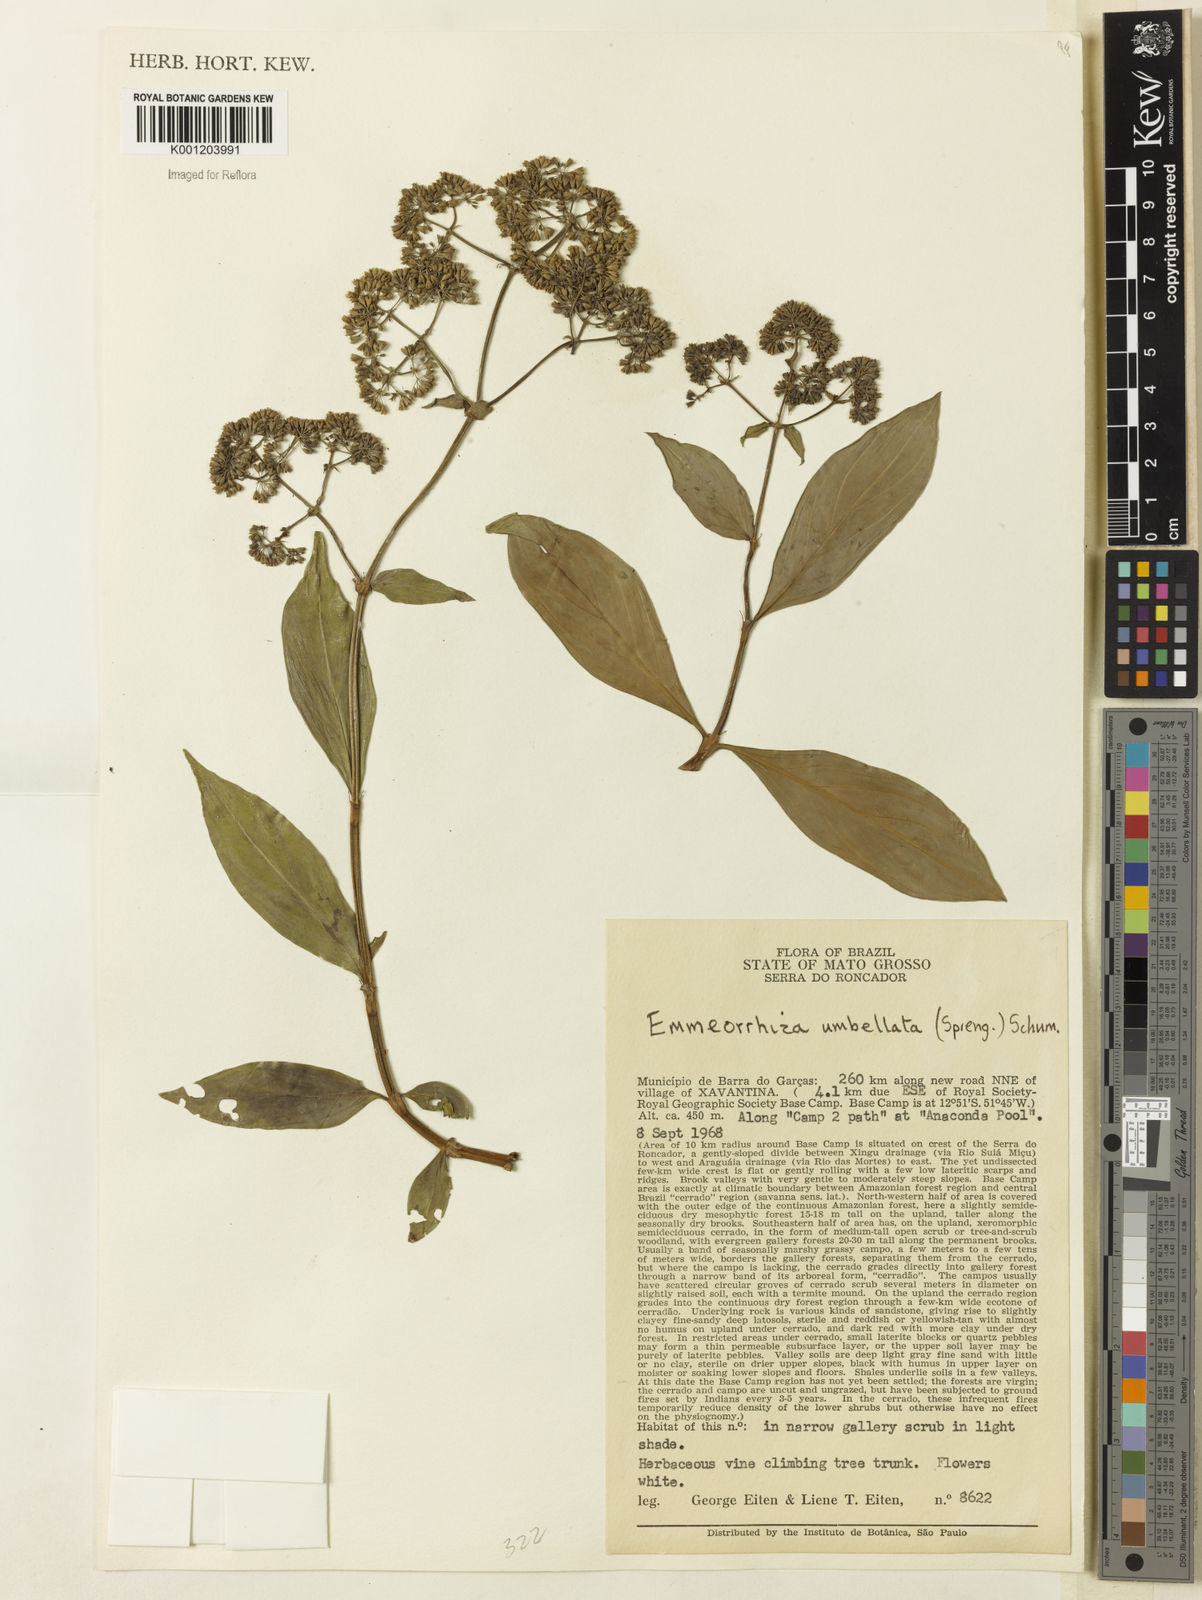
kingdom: Plantae
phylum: Tracheophyta
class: Magnoliopsida
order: Gentianales
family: Rubiaceae
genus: Emmeorhiza
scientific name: Emmeorhiza umbellata
